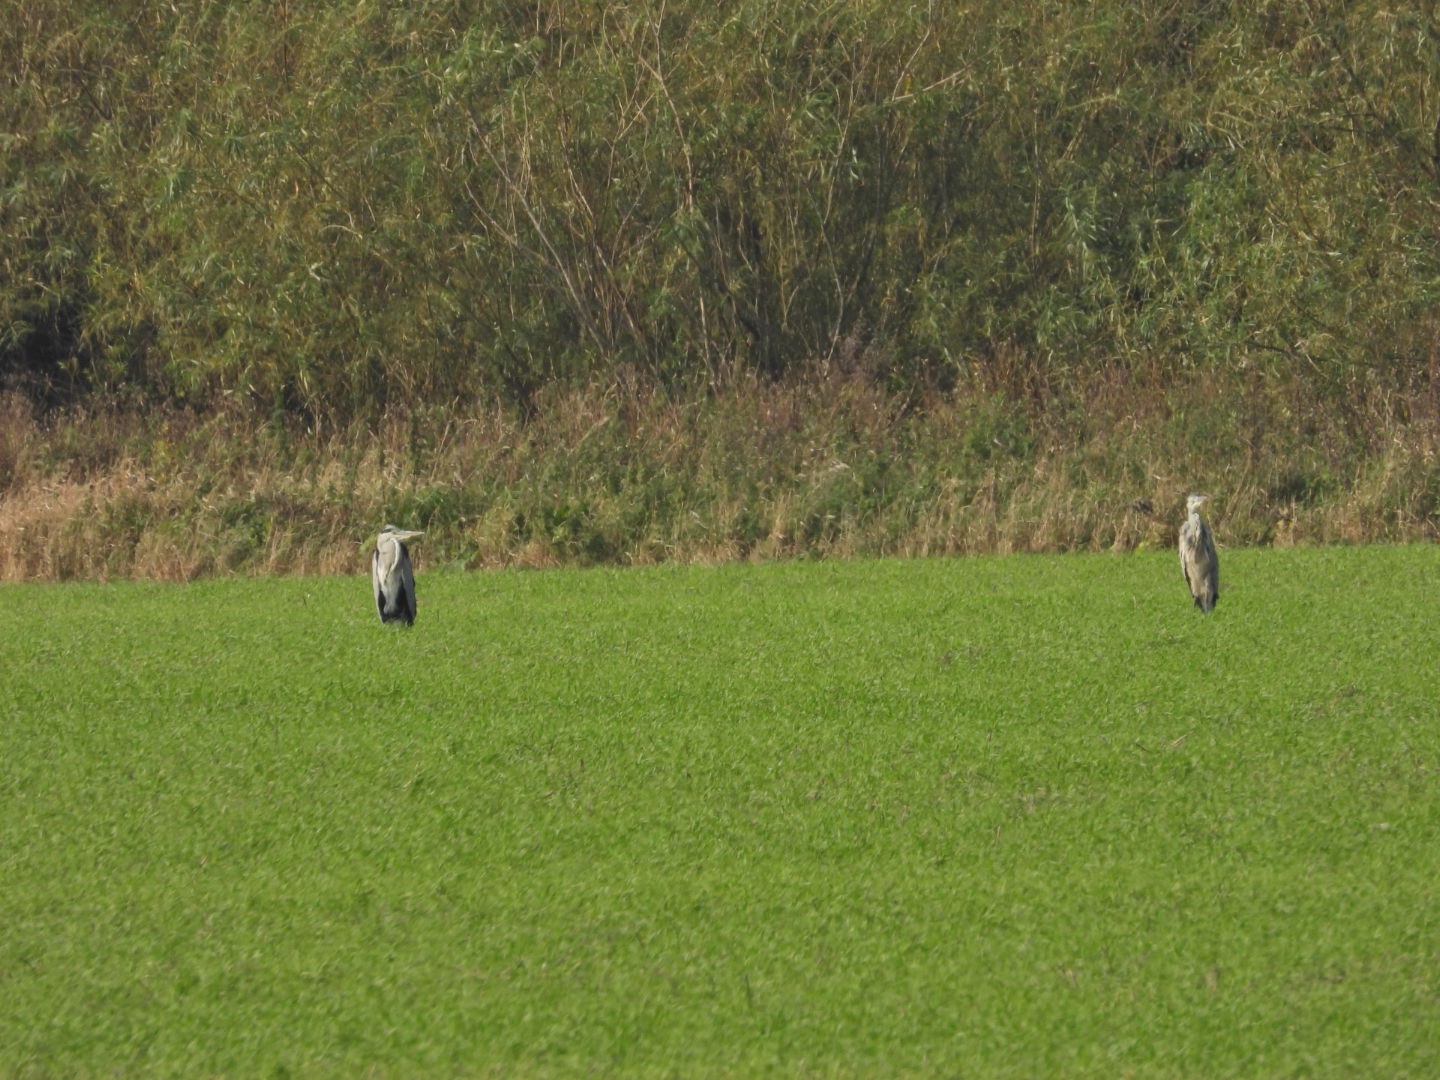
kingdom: Animalia
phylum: Chordata
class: Aves
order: Pelecaniformes
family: Ardeidae
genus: Ardea
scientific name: Ardea cinerea
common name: Fiskehejre
